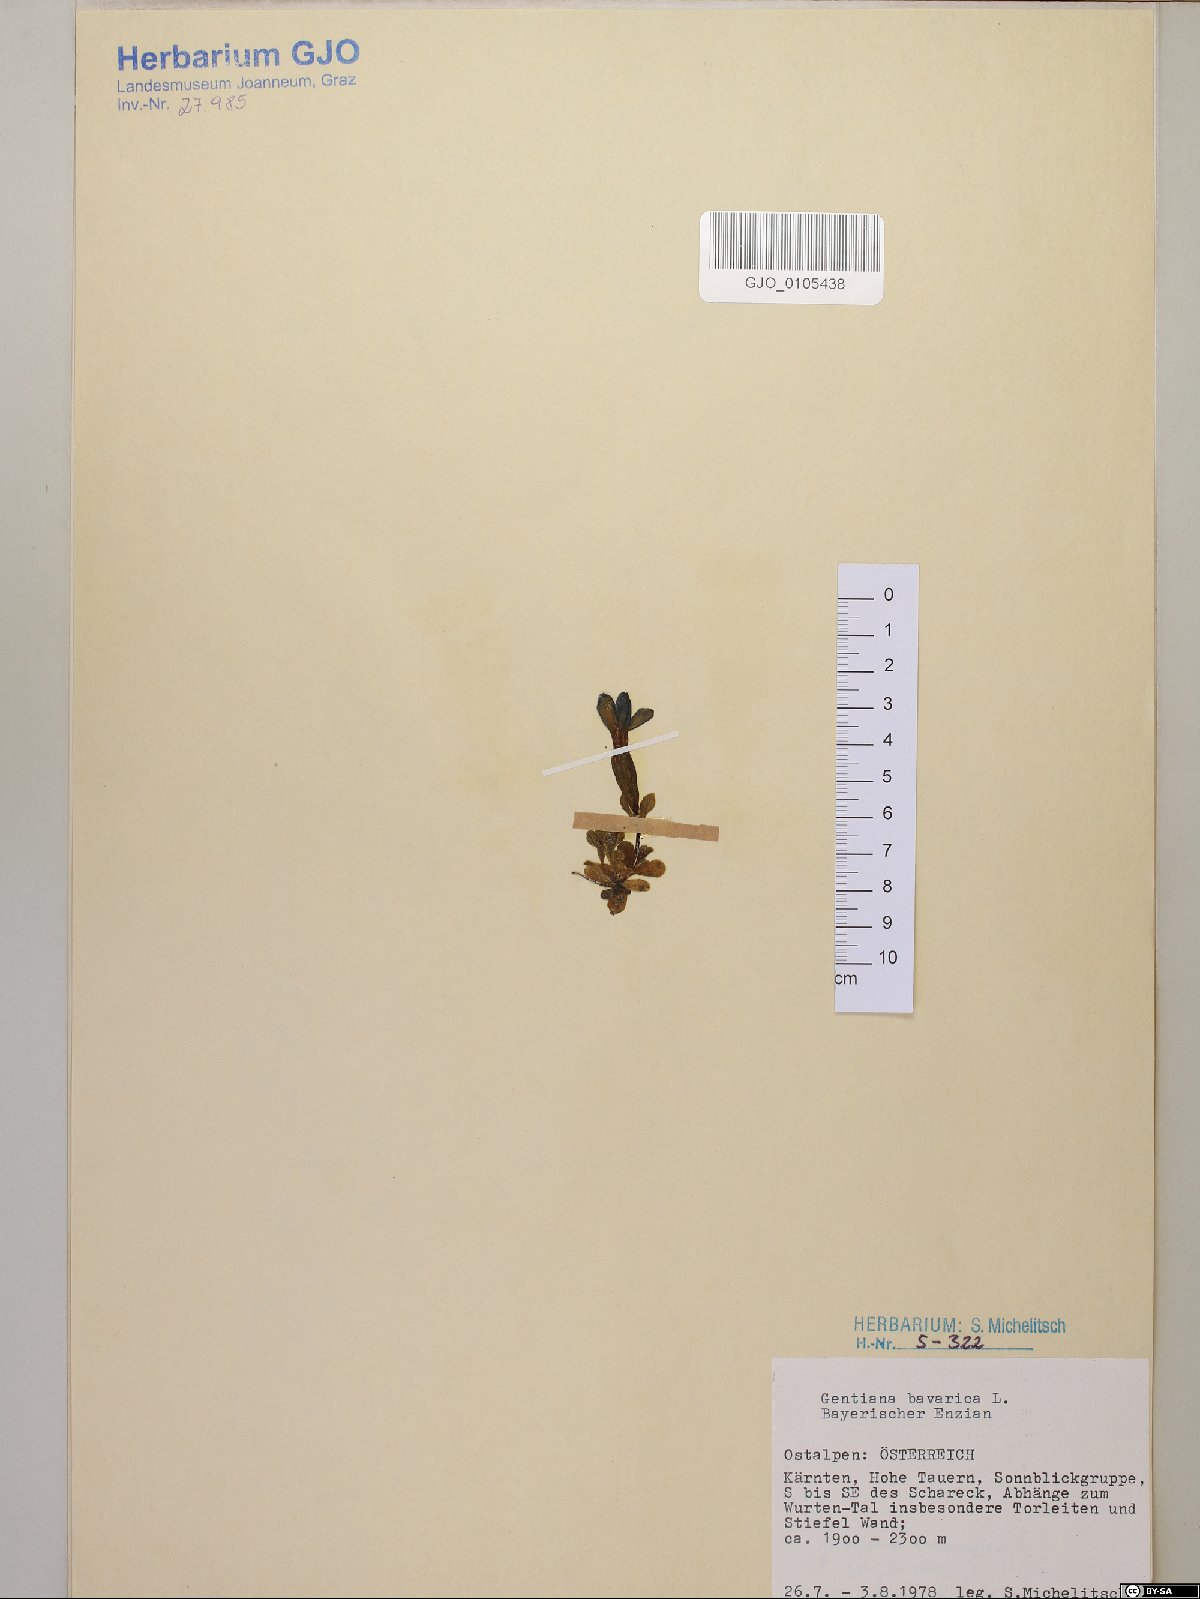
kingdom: Plantae
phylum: Tracheophyta
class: Magnoliopsida
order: Gentianales
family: Gentianaceae
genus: Gentiana
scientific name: Gentiana bavarica
